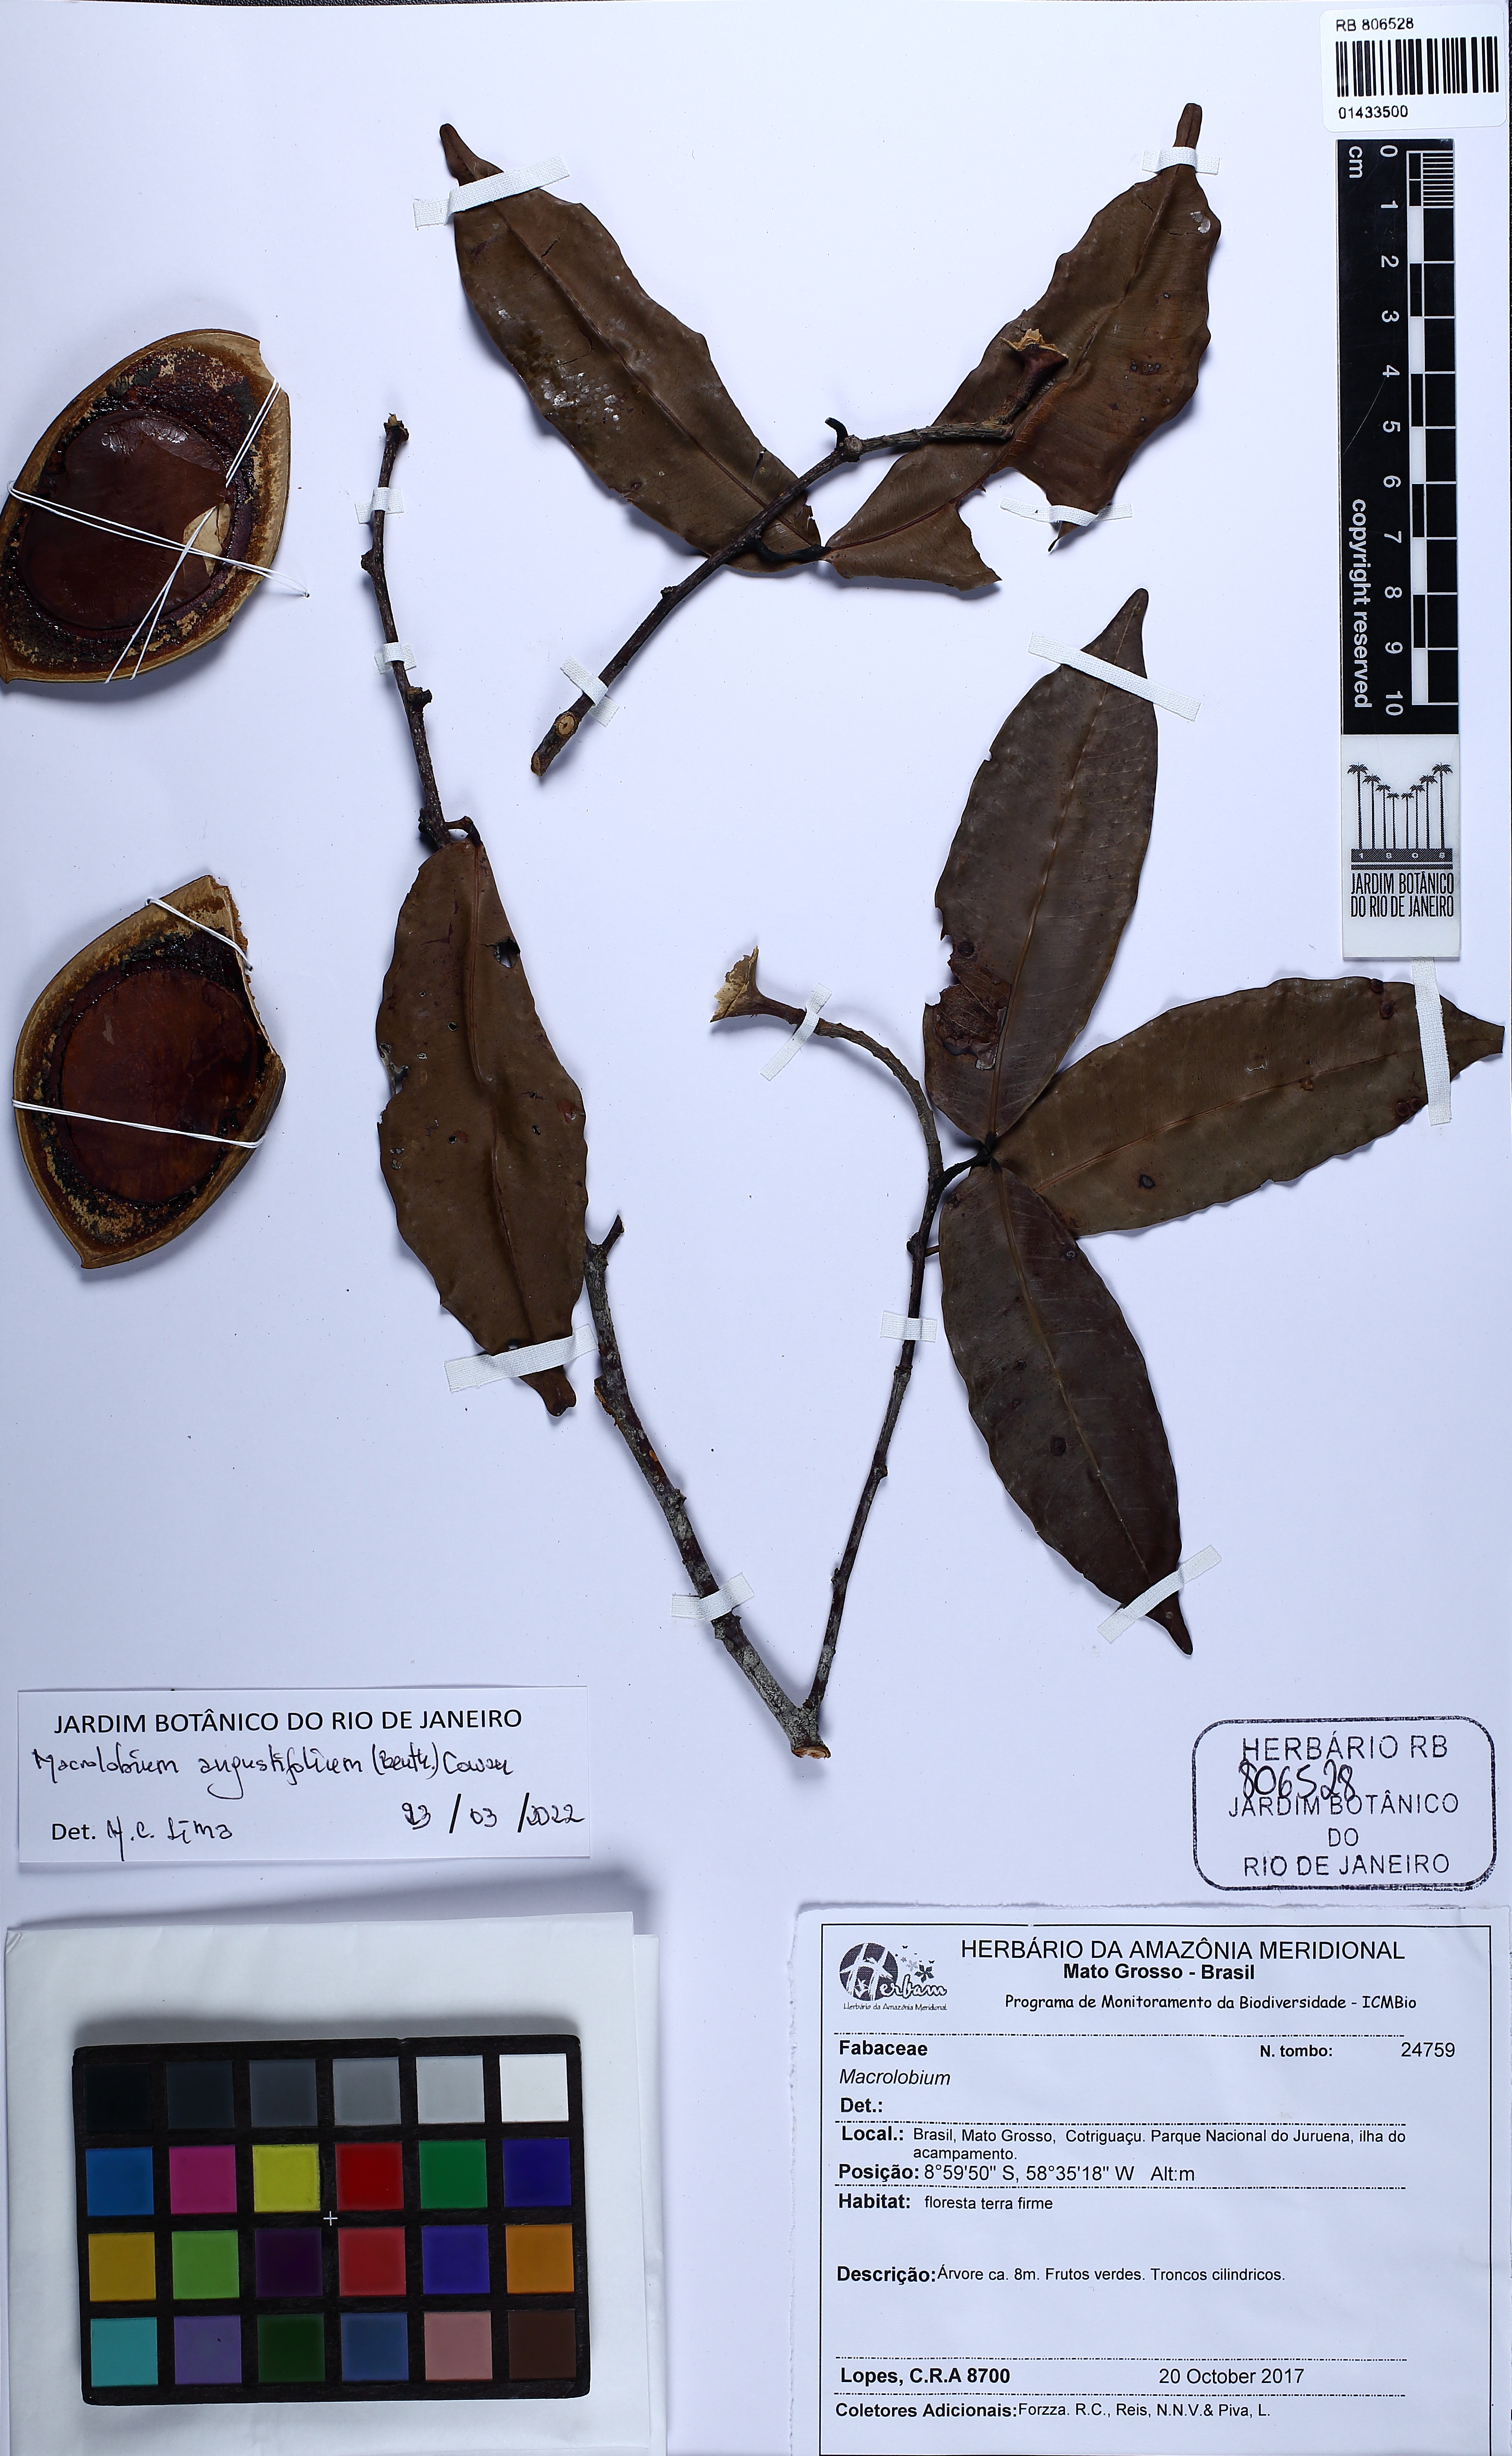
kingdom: Plantae
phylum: Tracheophyta
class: Magnoliopsida
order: Fabales
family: Fabaceae
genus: Macrolobium
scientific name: Macrolobium angustifolium
